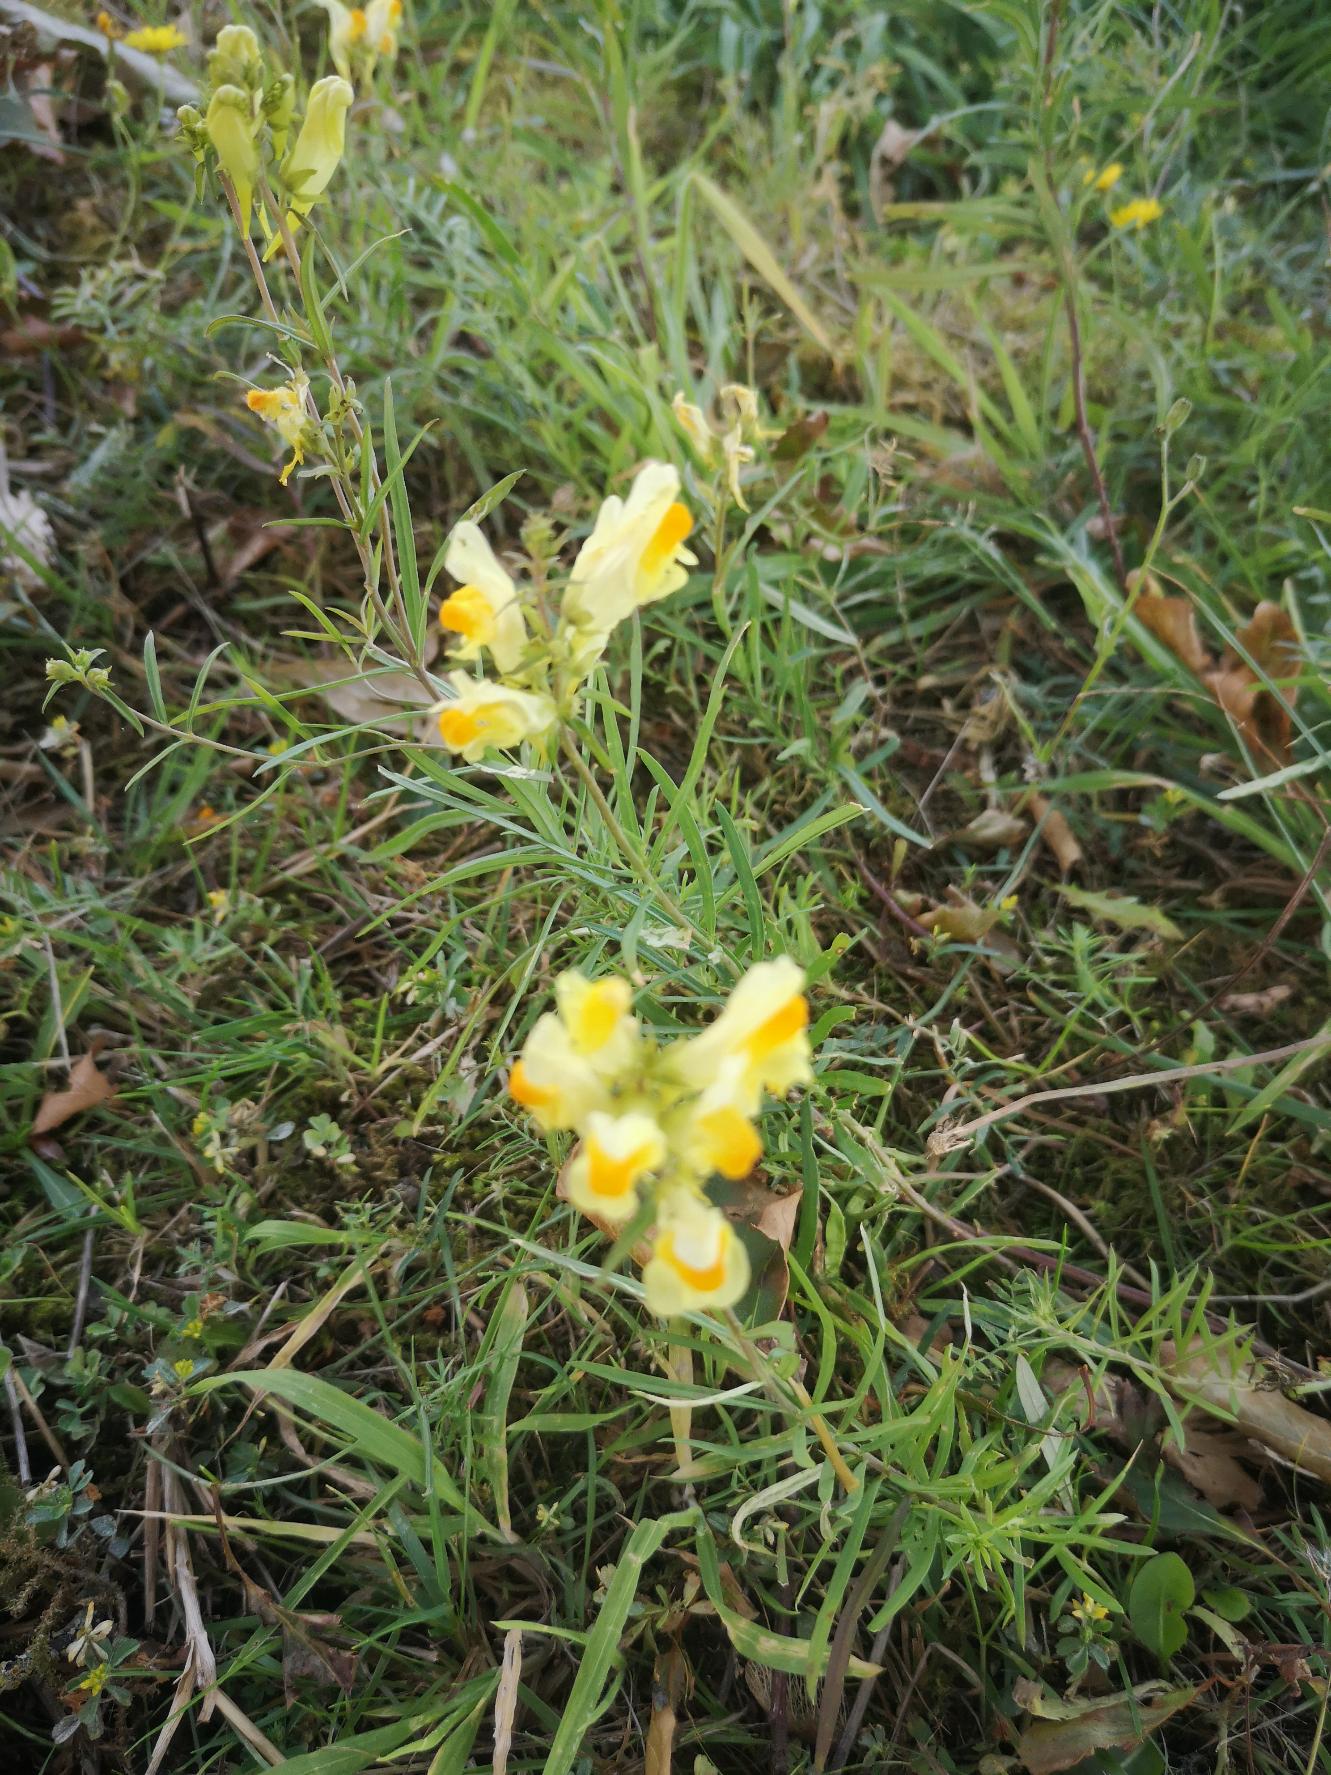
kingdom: Plantae
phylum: Tracheophyta
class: Magnoliopsida
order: Lamiales
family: Plantaginaceae
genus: Linaria
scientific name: Linaria vulgaris
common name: Almindelig torskemund
